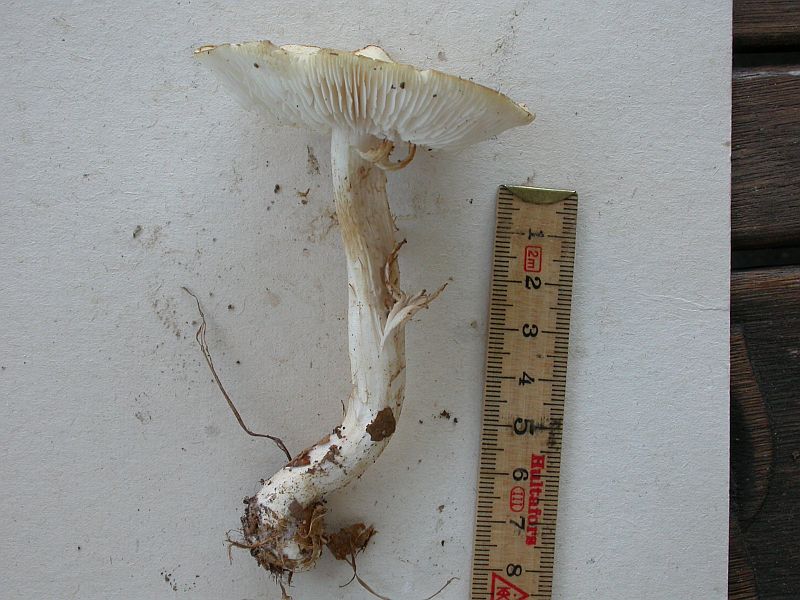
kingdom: Fungi
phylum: Basidiomycota
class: Agaricomycetes
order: Agaricales
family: Tricholomataceae
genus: Tricholoma
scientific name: Tricholoma lascivum
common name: stinkende ridderhat
